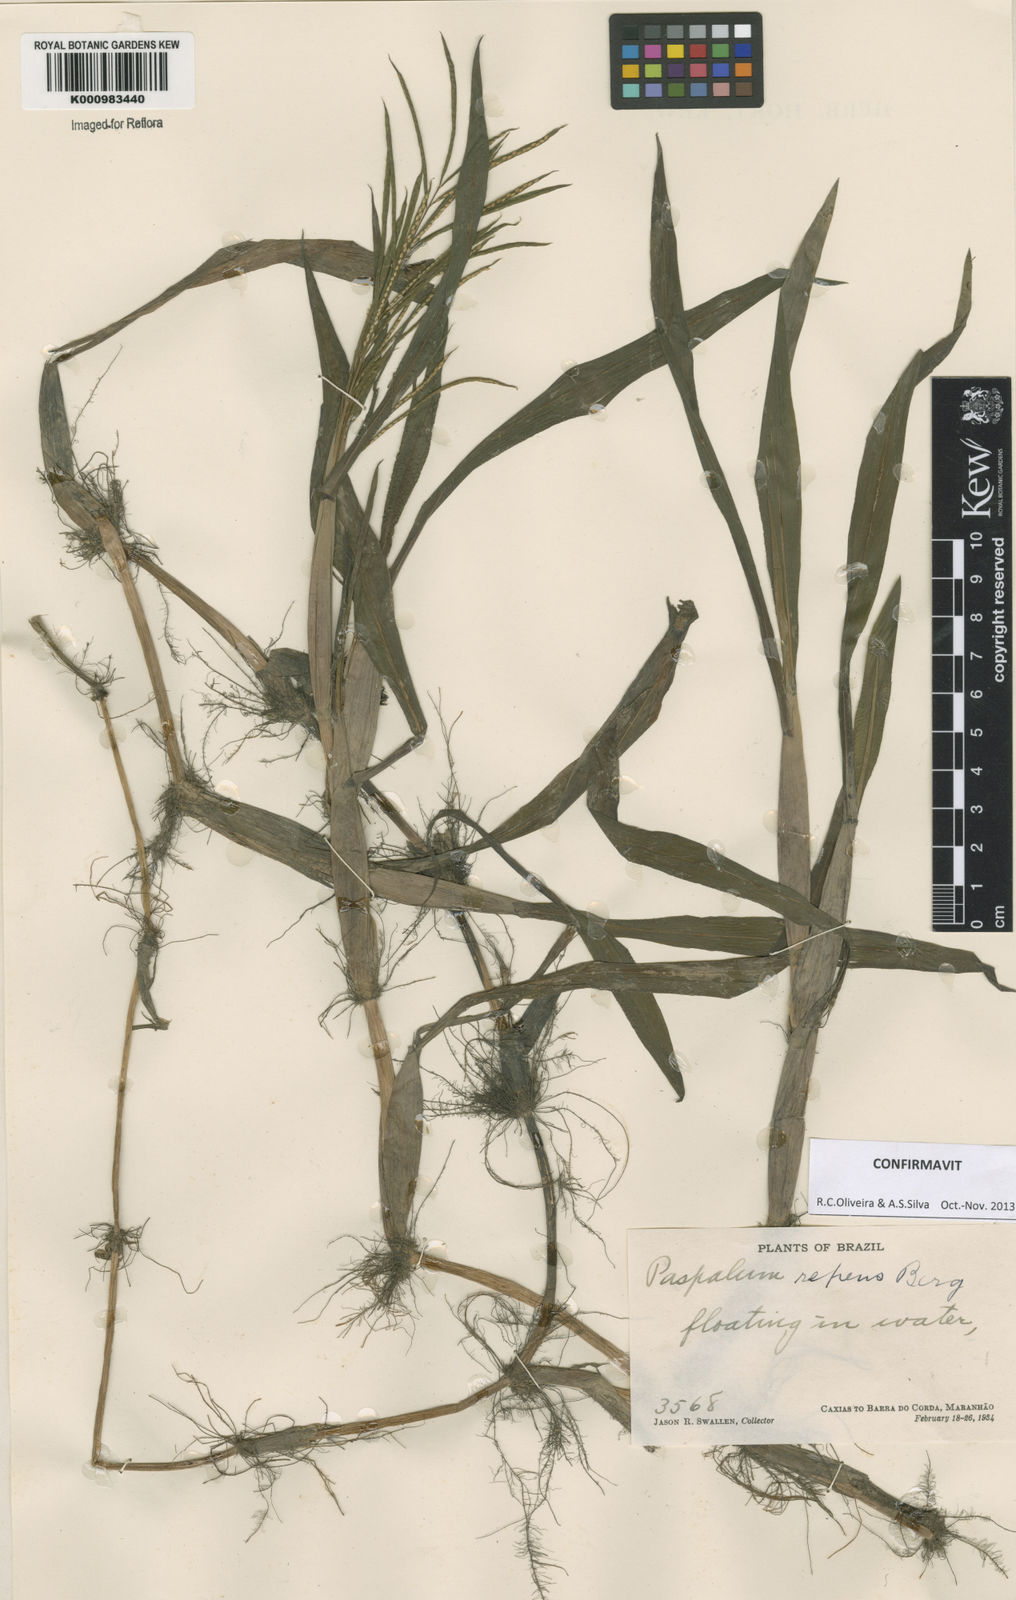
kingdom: Plantae
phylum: Tracheophyta
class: Liliopsida
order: Poales
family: Poaceae
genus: Paspalum
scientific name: Paspalum repens
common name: Water paspalum
